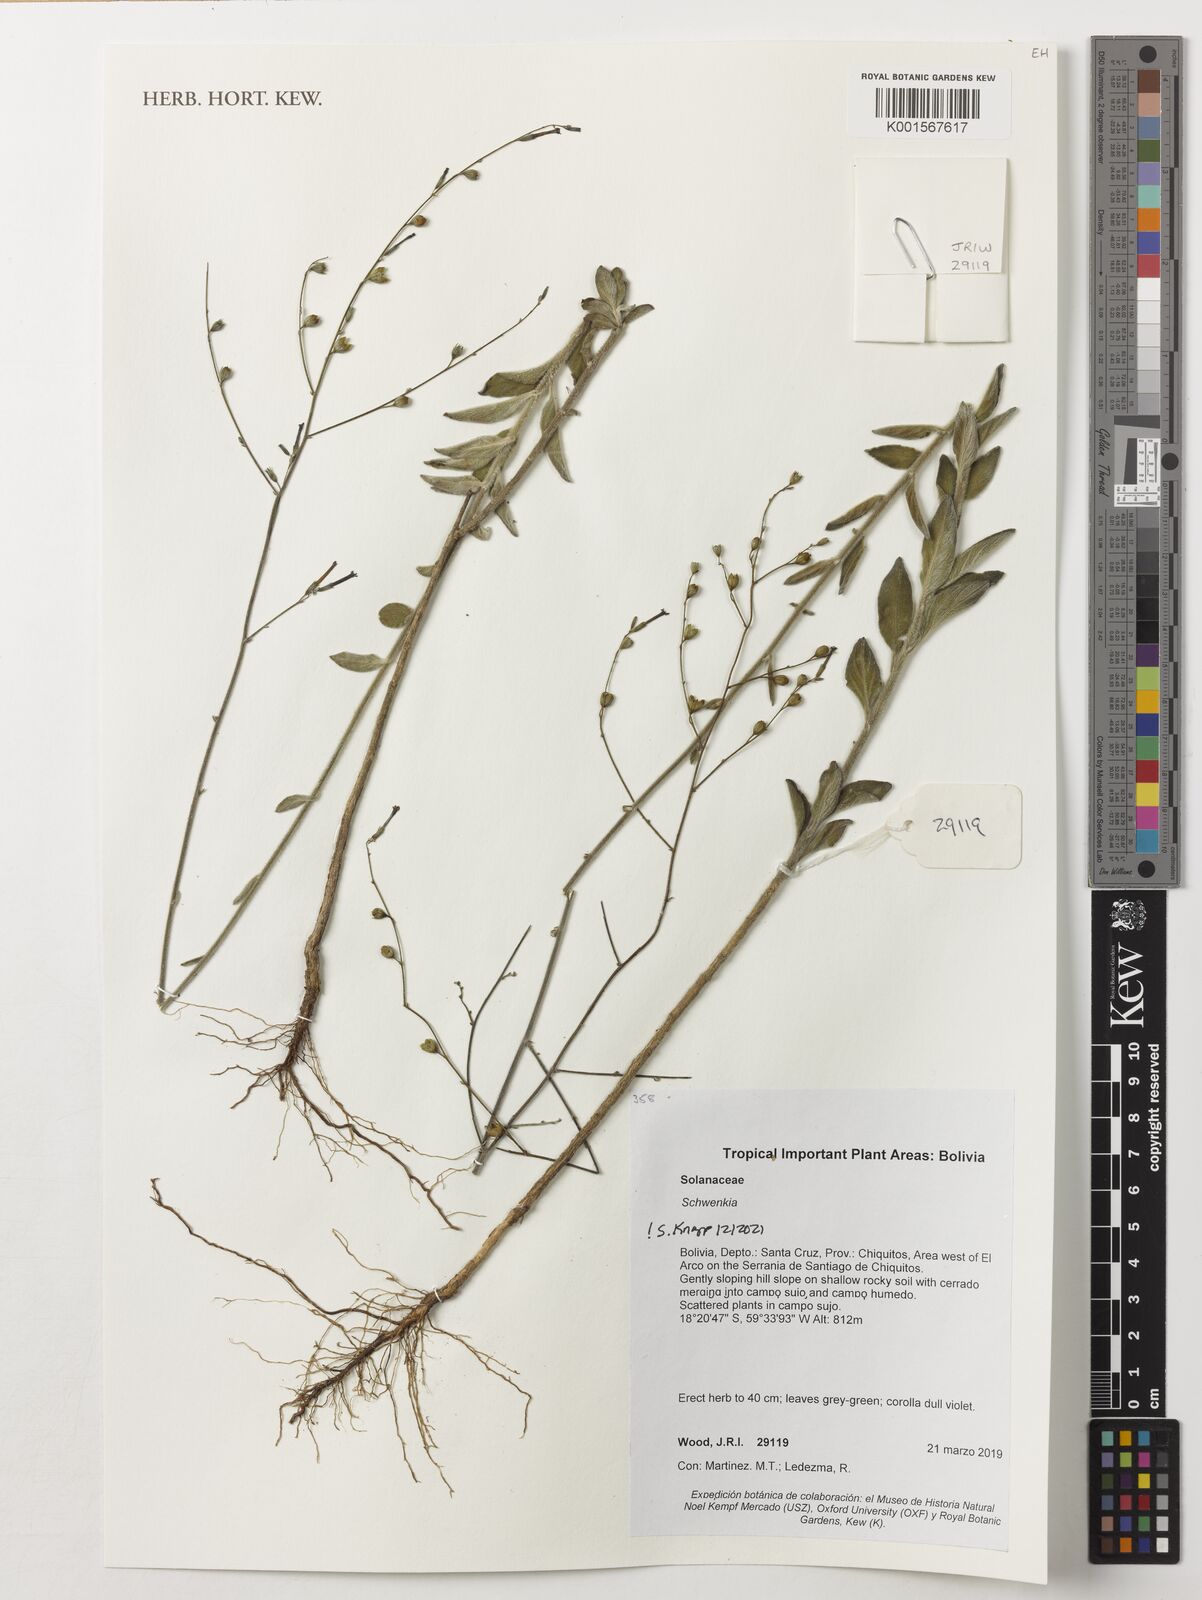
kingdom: Plantae
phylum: Tracheophyta
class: Magnoliopsida
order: Solanales
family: Solanaceae
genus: Schwenckia
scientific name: Schwenckia
